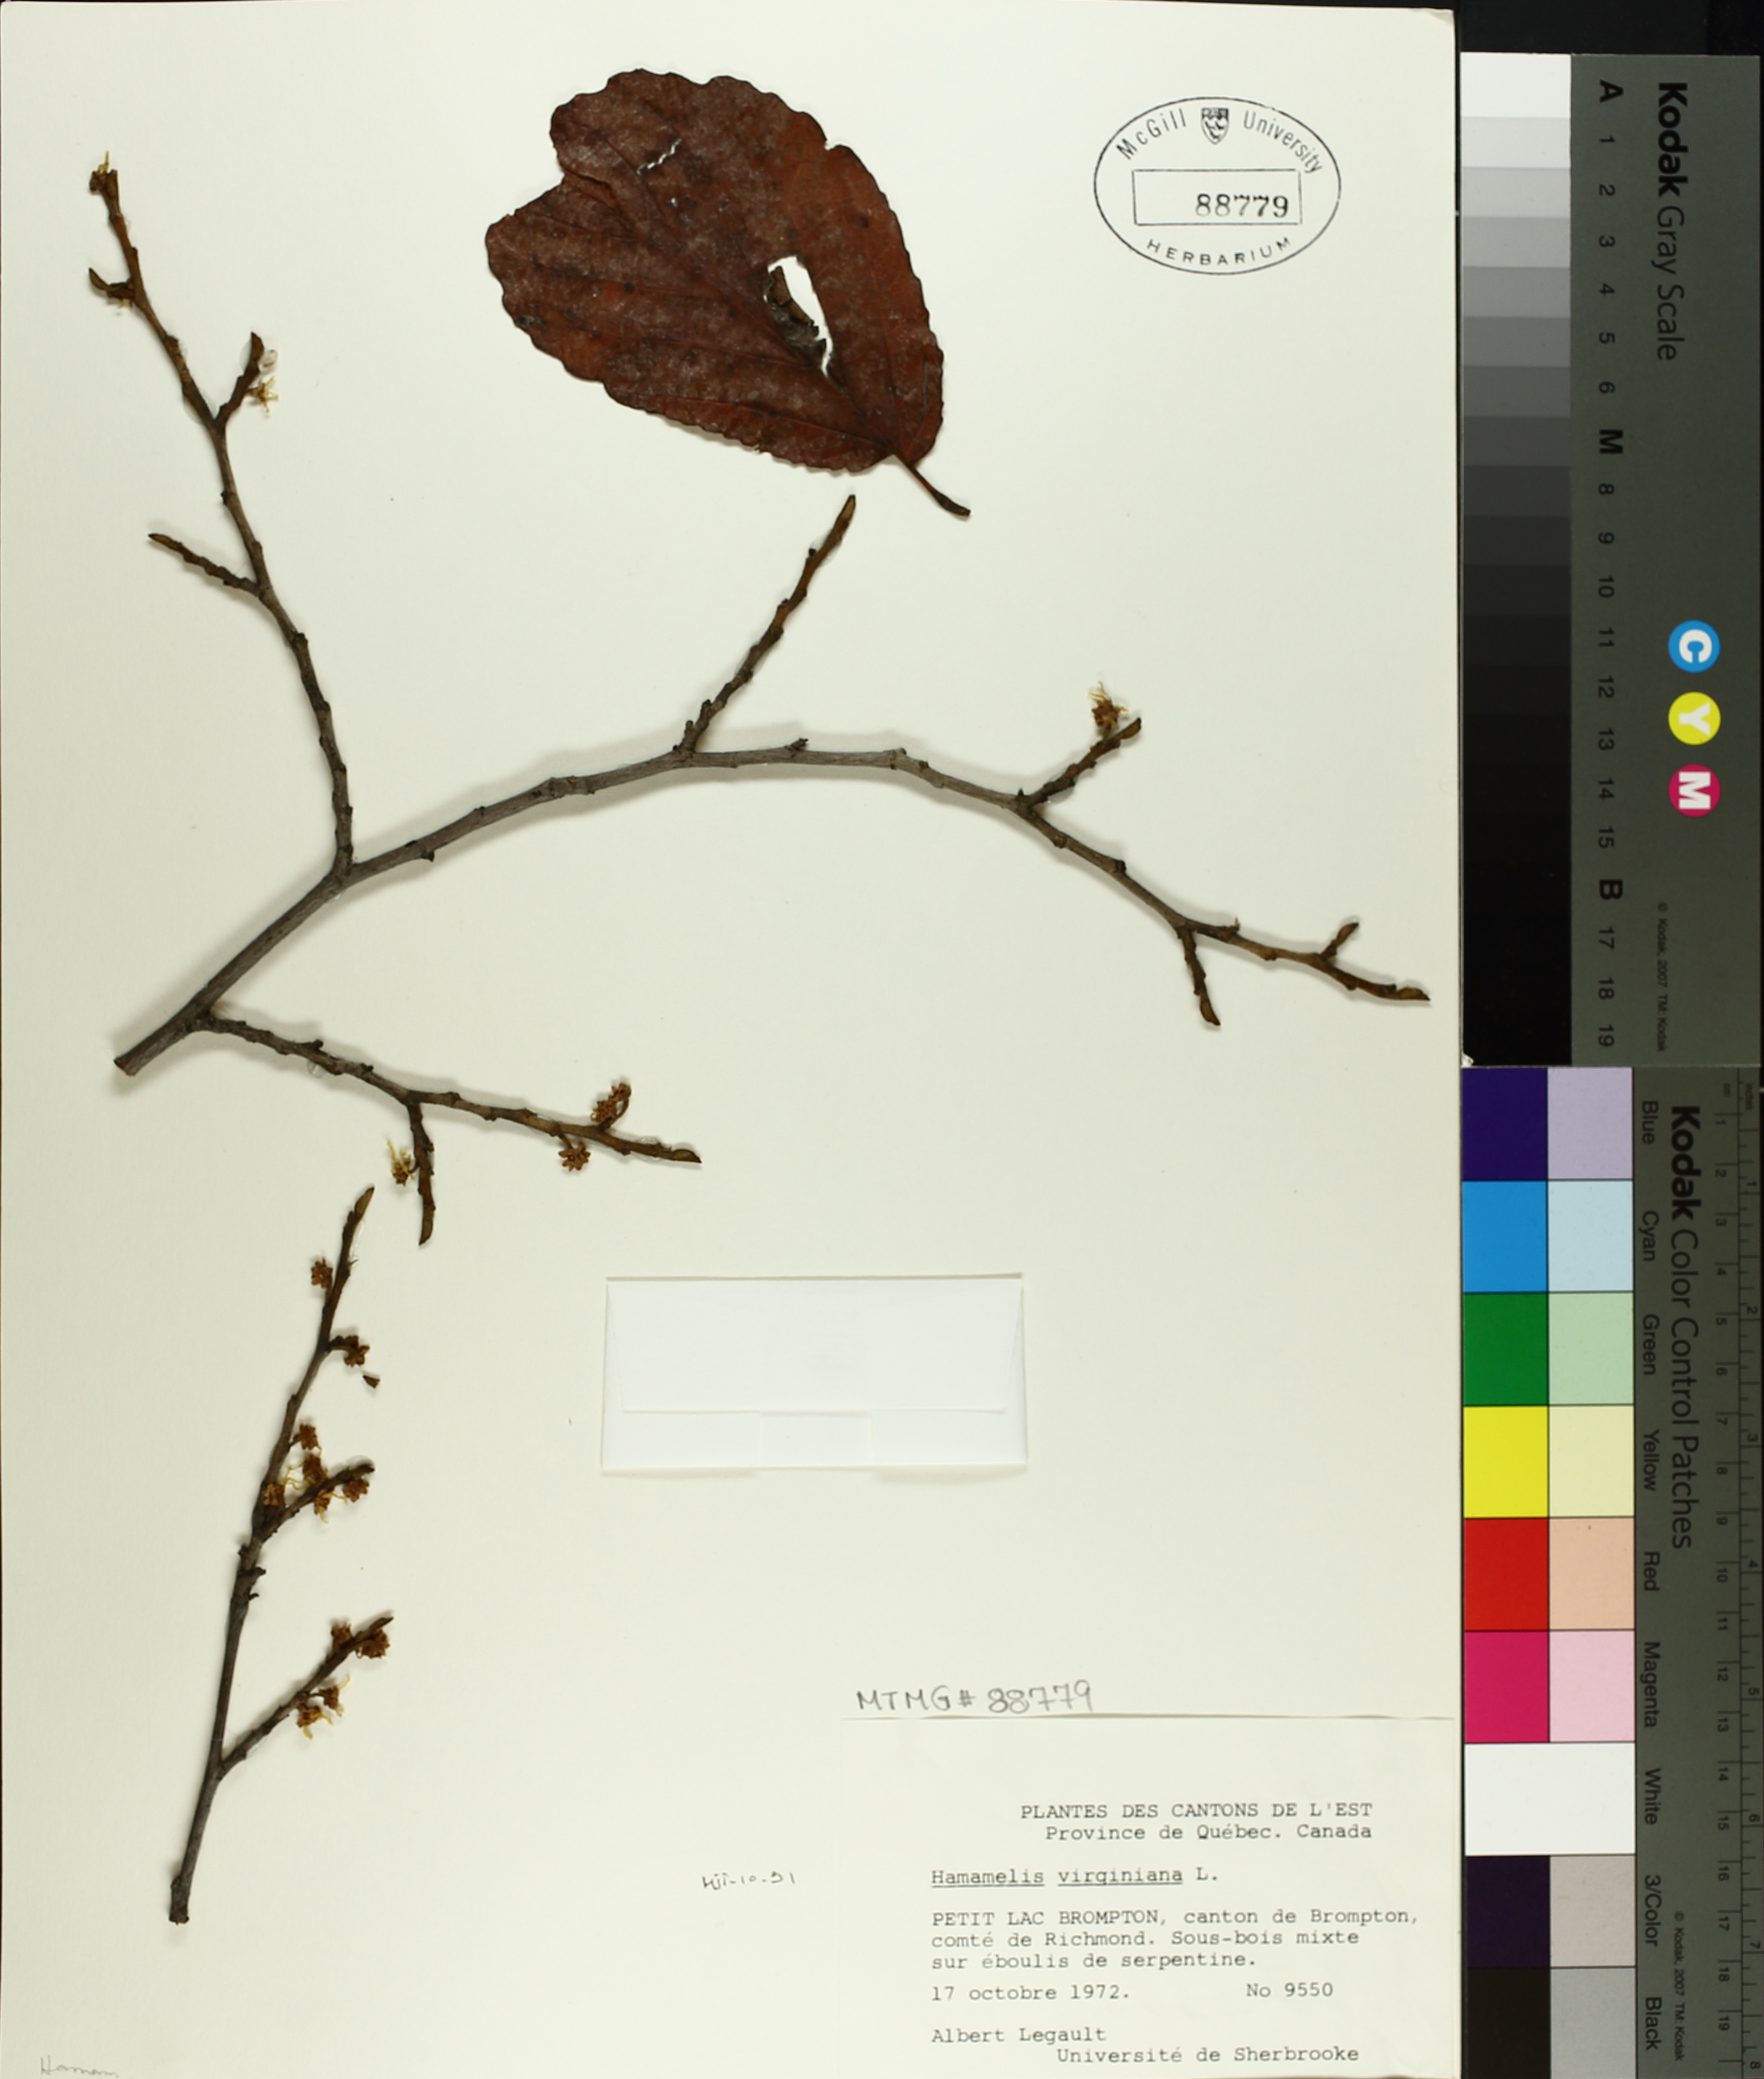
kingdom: Plantae
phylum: Tracheophyta
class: Magnoliopsida
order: Saxifragales
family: Hamamelidaceae
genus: Hamamelis
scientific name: Hamamelis virginiana
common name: Witch-hazel
